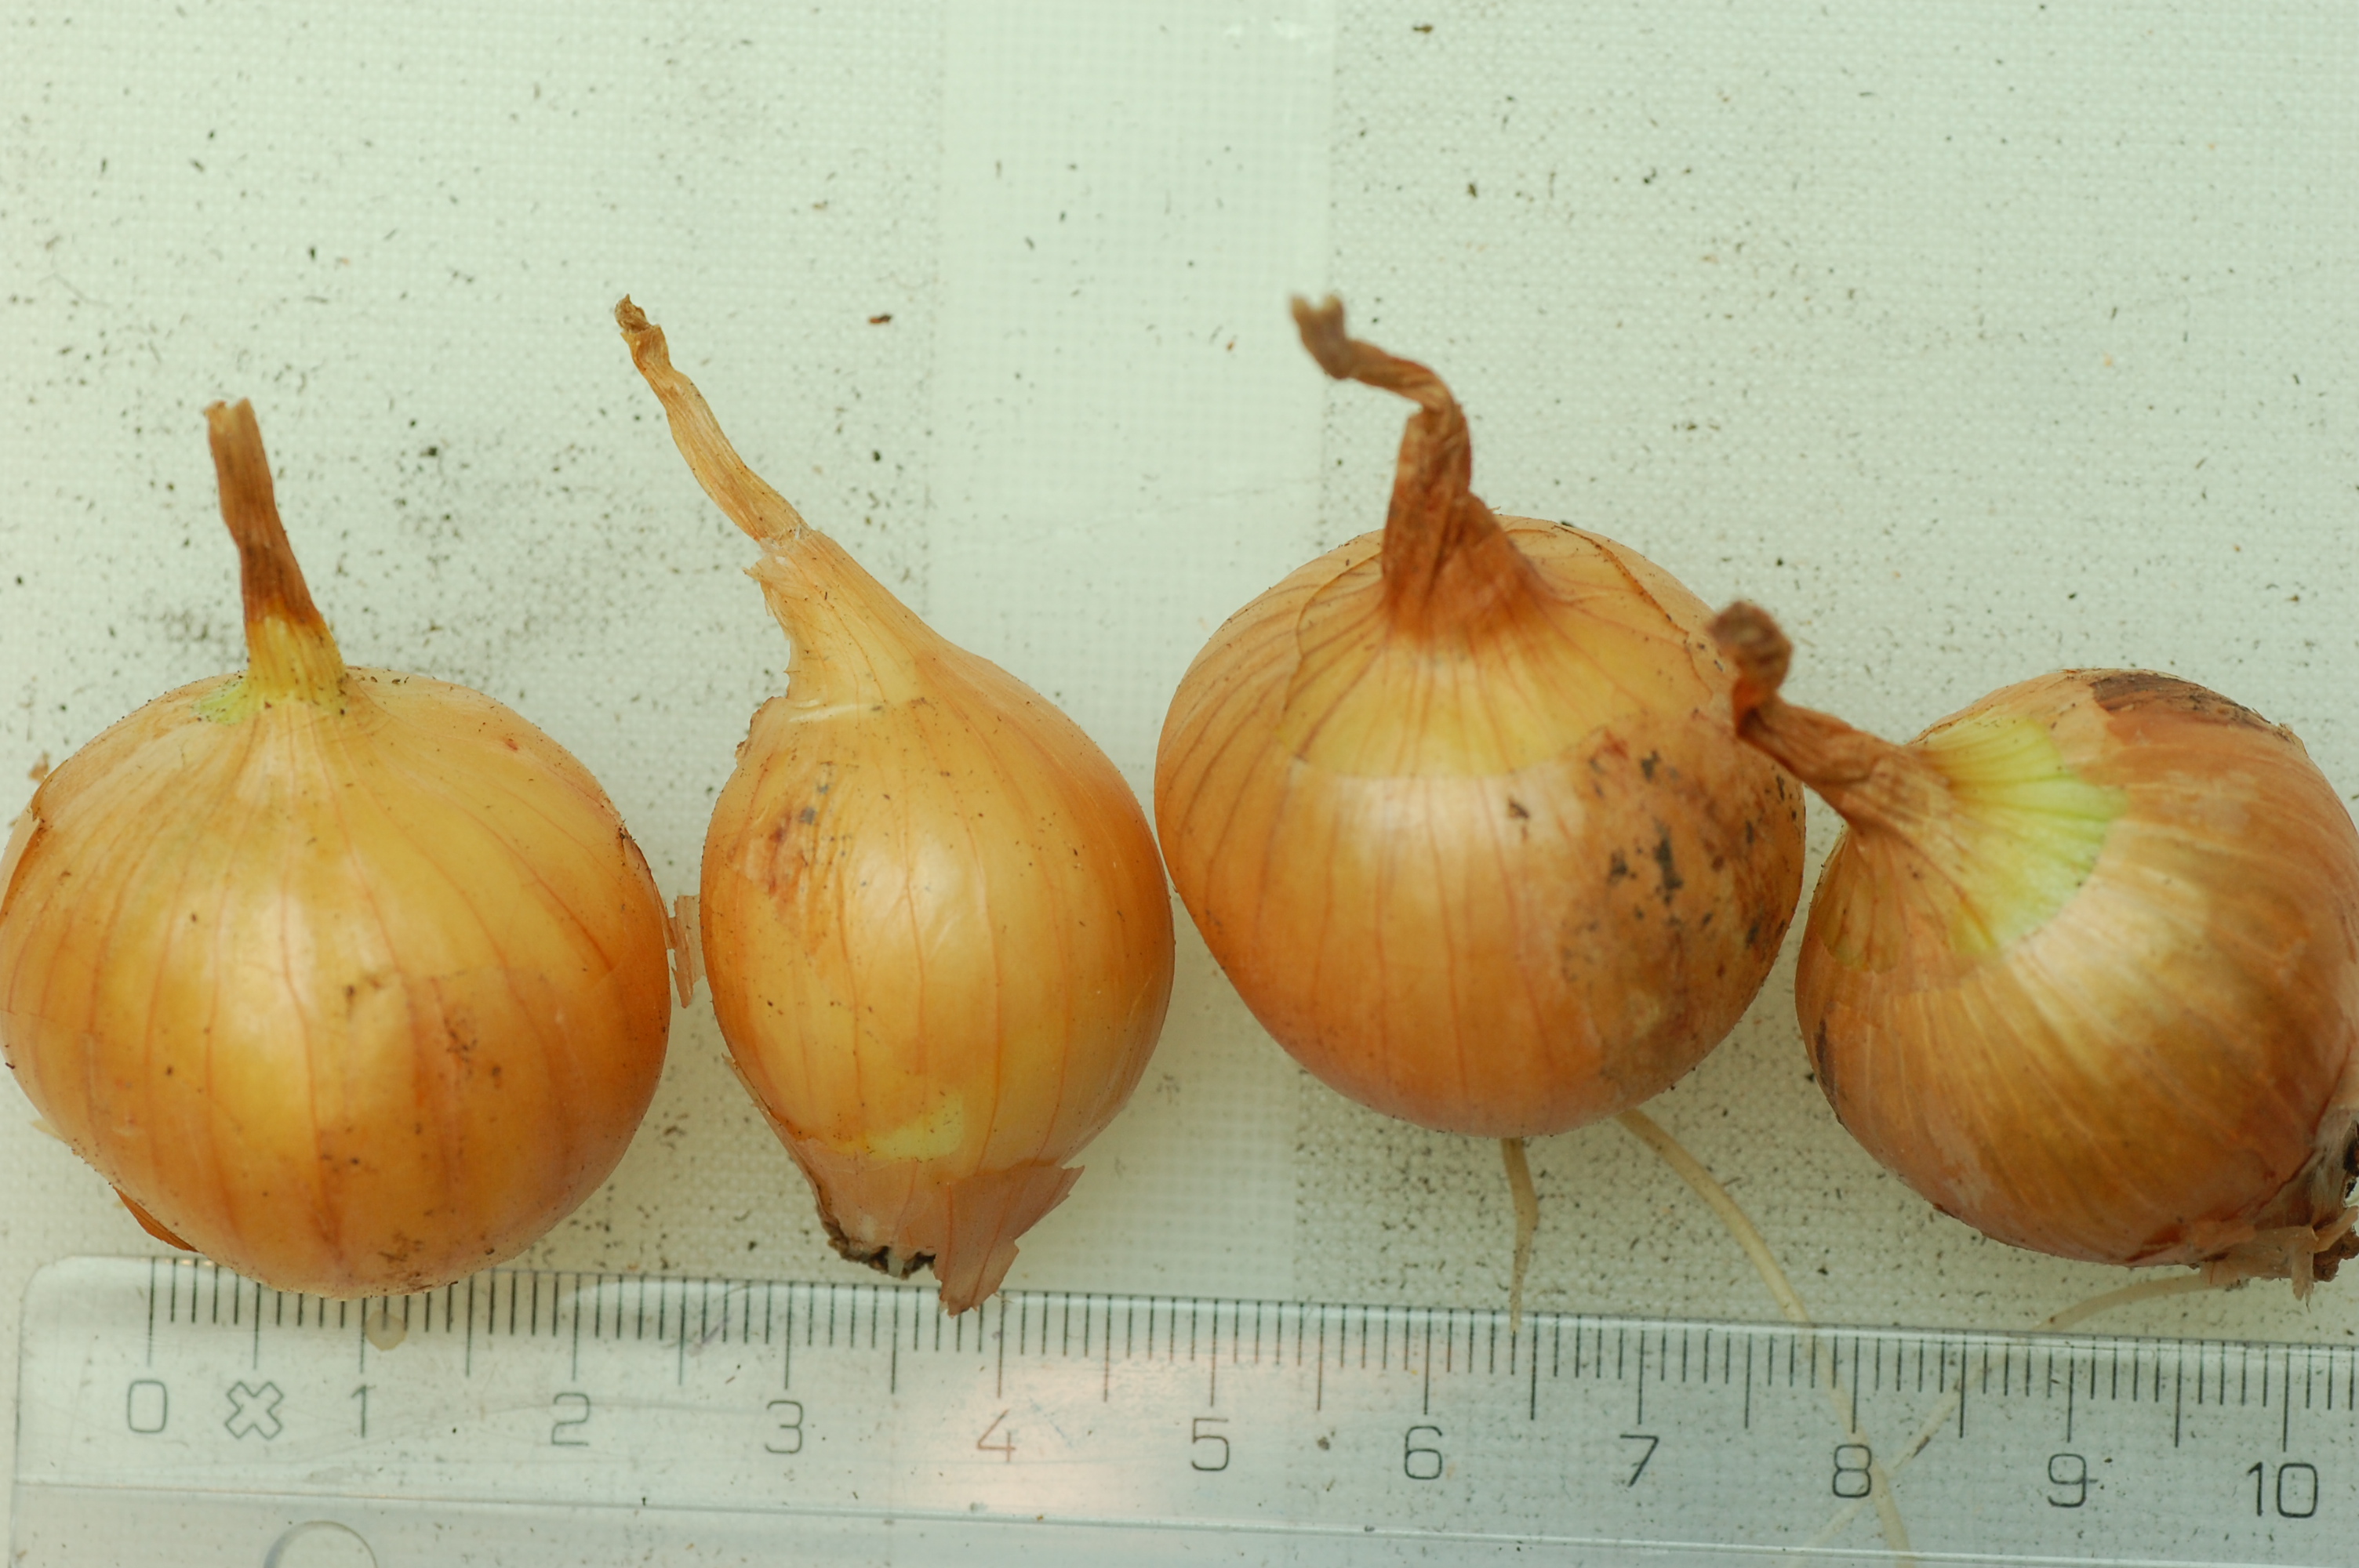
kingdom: Plantae
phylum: Tracheophyta
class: Liliopsida
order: Asparagales
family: Amaryllidaceae
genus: Allium
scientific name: Allium cepa
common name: Onion
